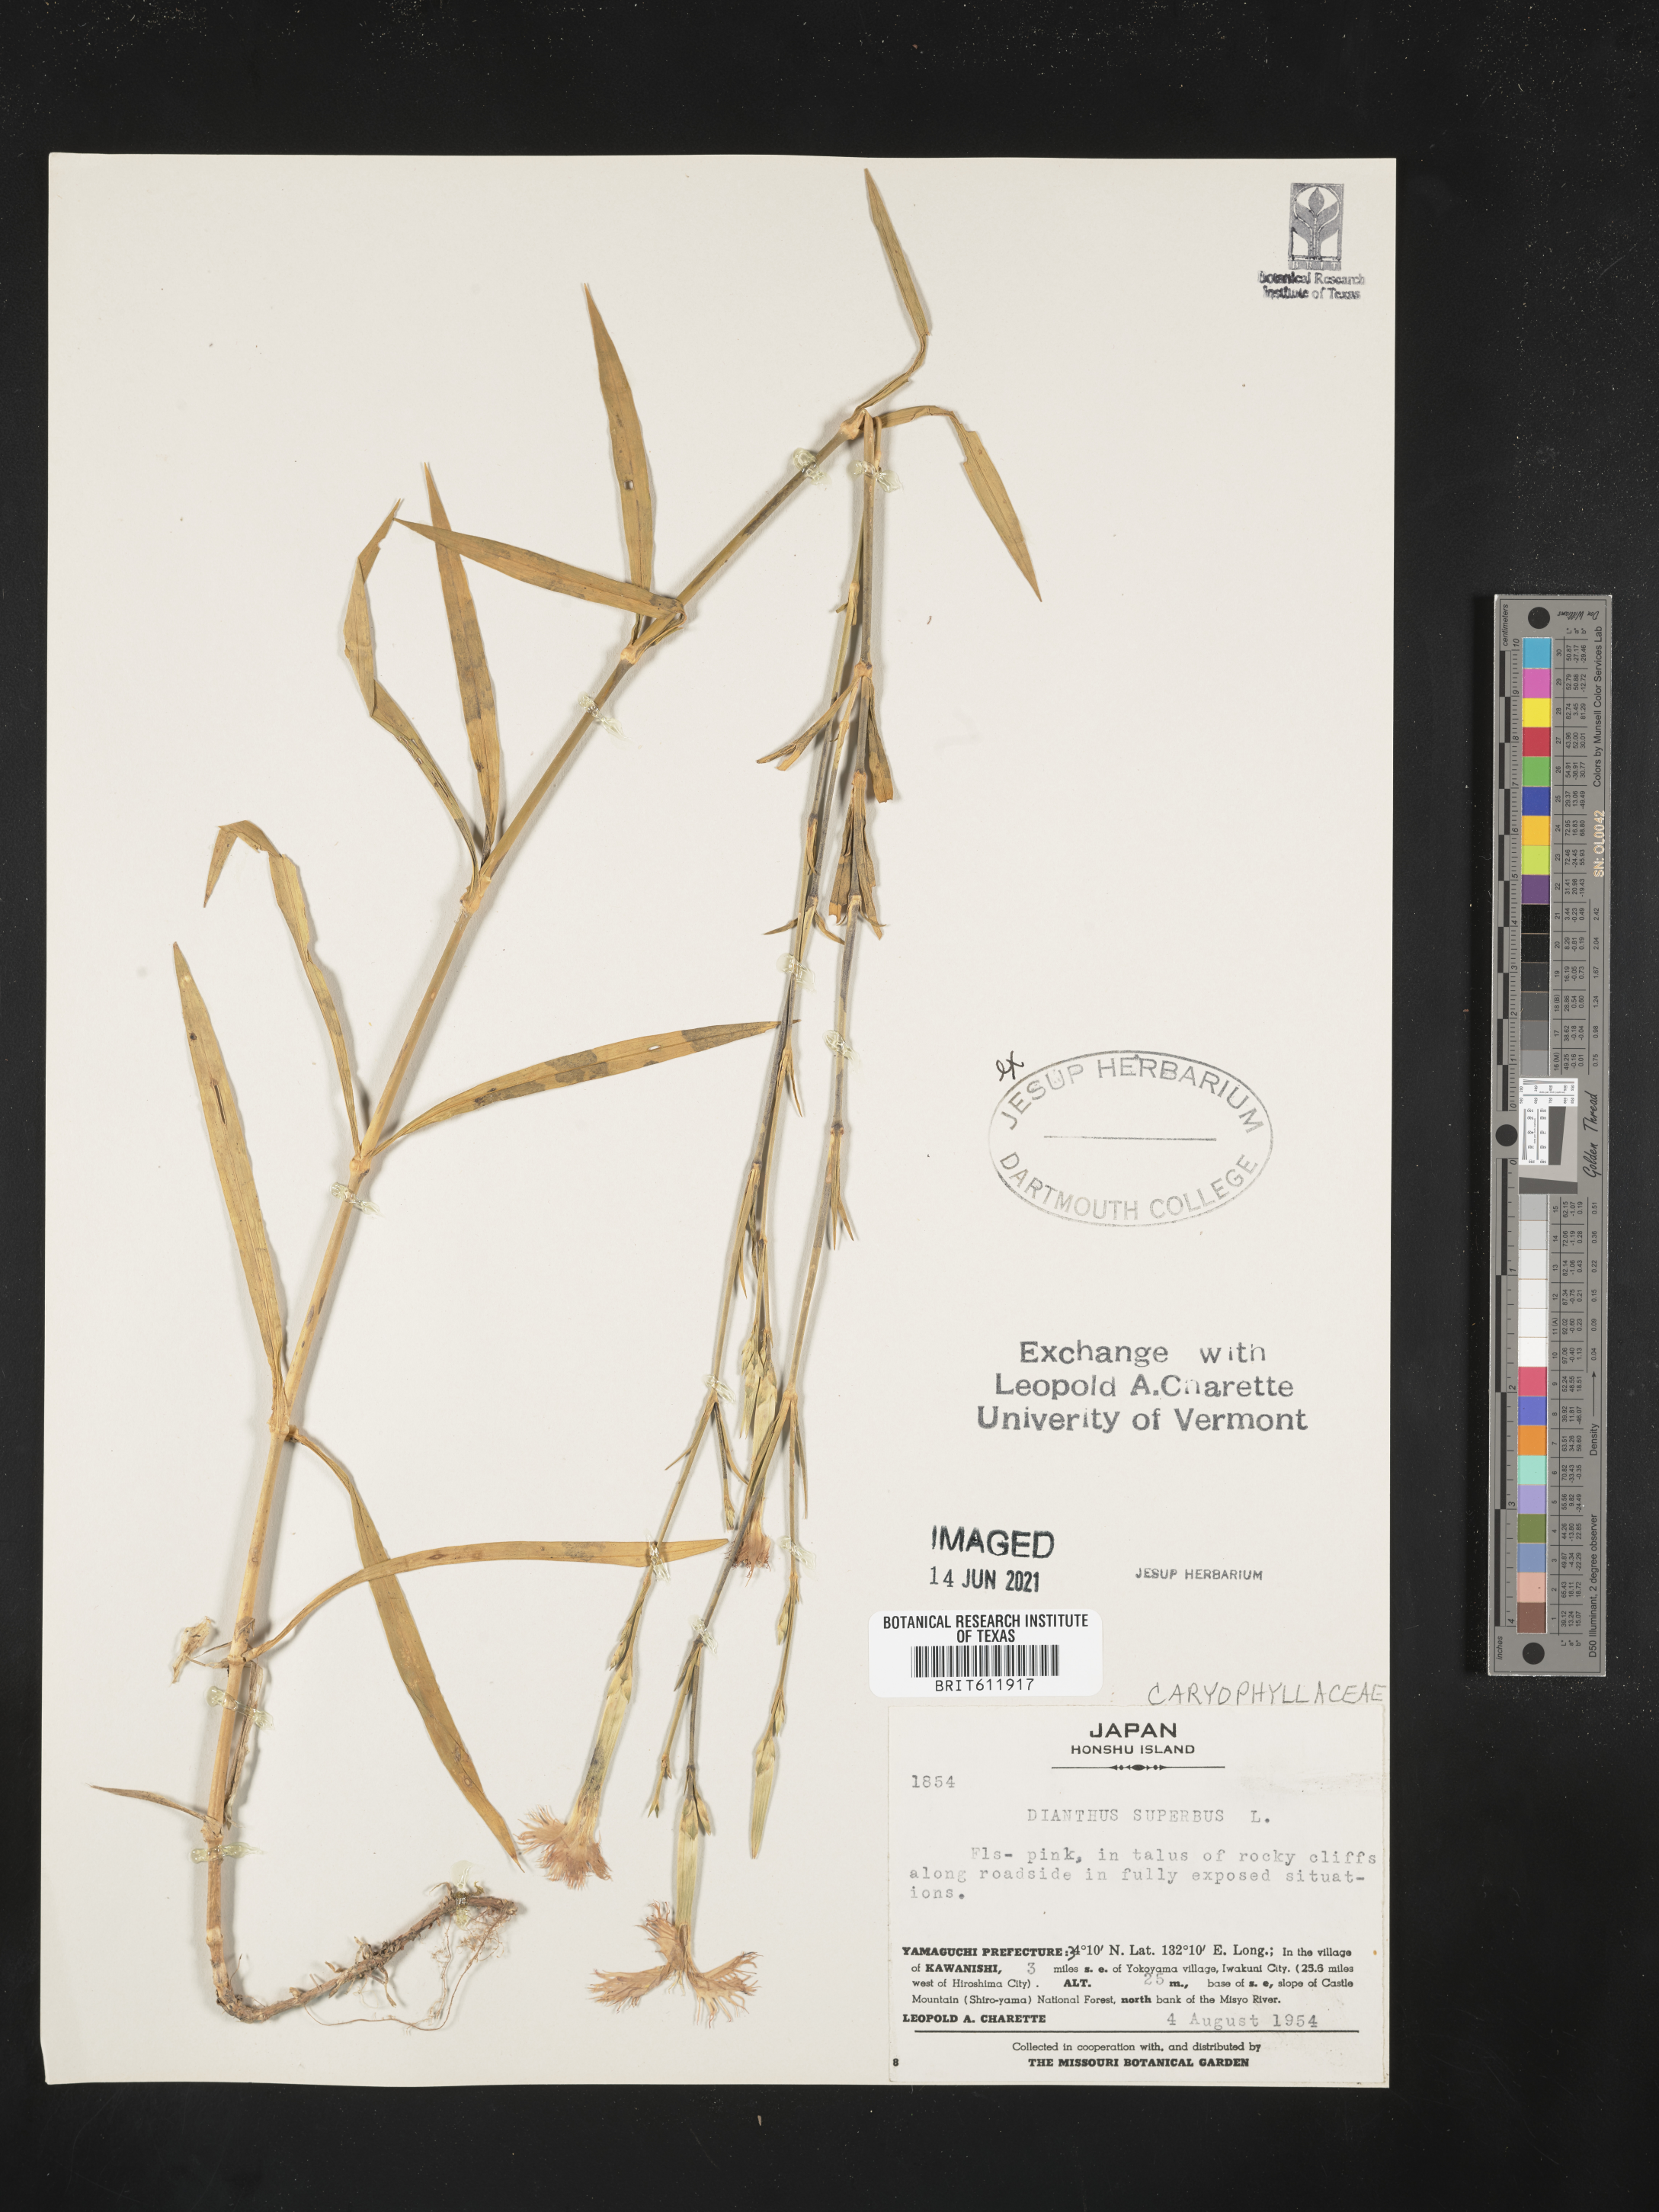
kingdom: Plantae
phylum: Tracheophyta
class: Magnoliopsida
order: Caryophyllales
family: Caryophyllaceae
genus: Dianthus
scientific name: Dianthus superbus
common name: Fringed pink
